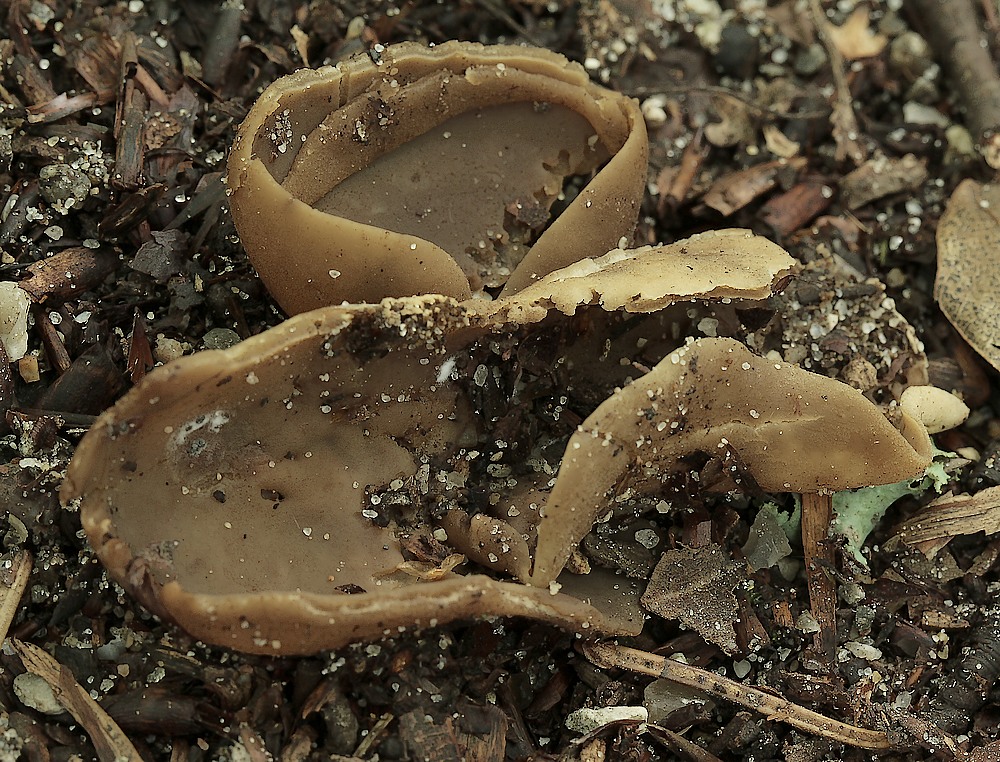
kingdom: Fungi
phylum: Ascomycota
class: Pezizomycetes
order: Pezizales
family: Otideaceae
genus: Otidea
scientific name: Otidea alutacea
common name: læder-ørebæger
